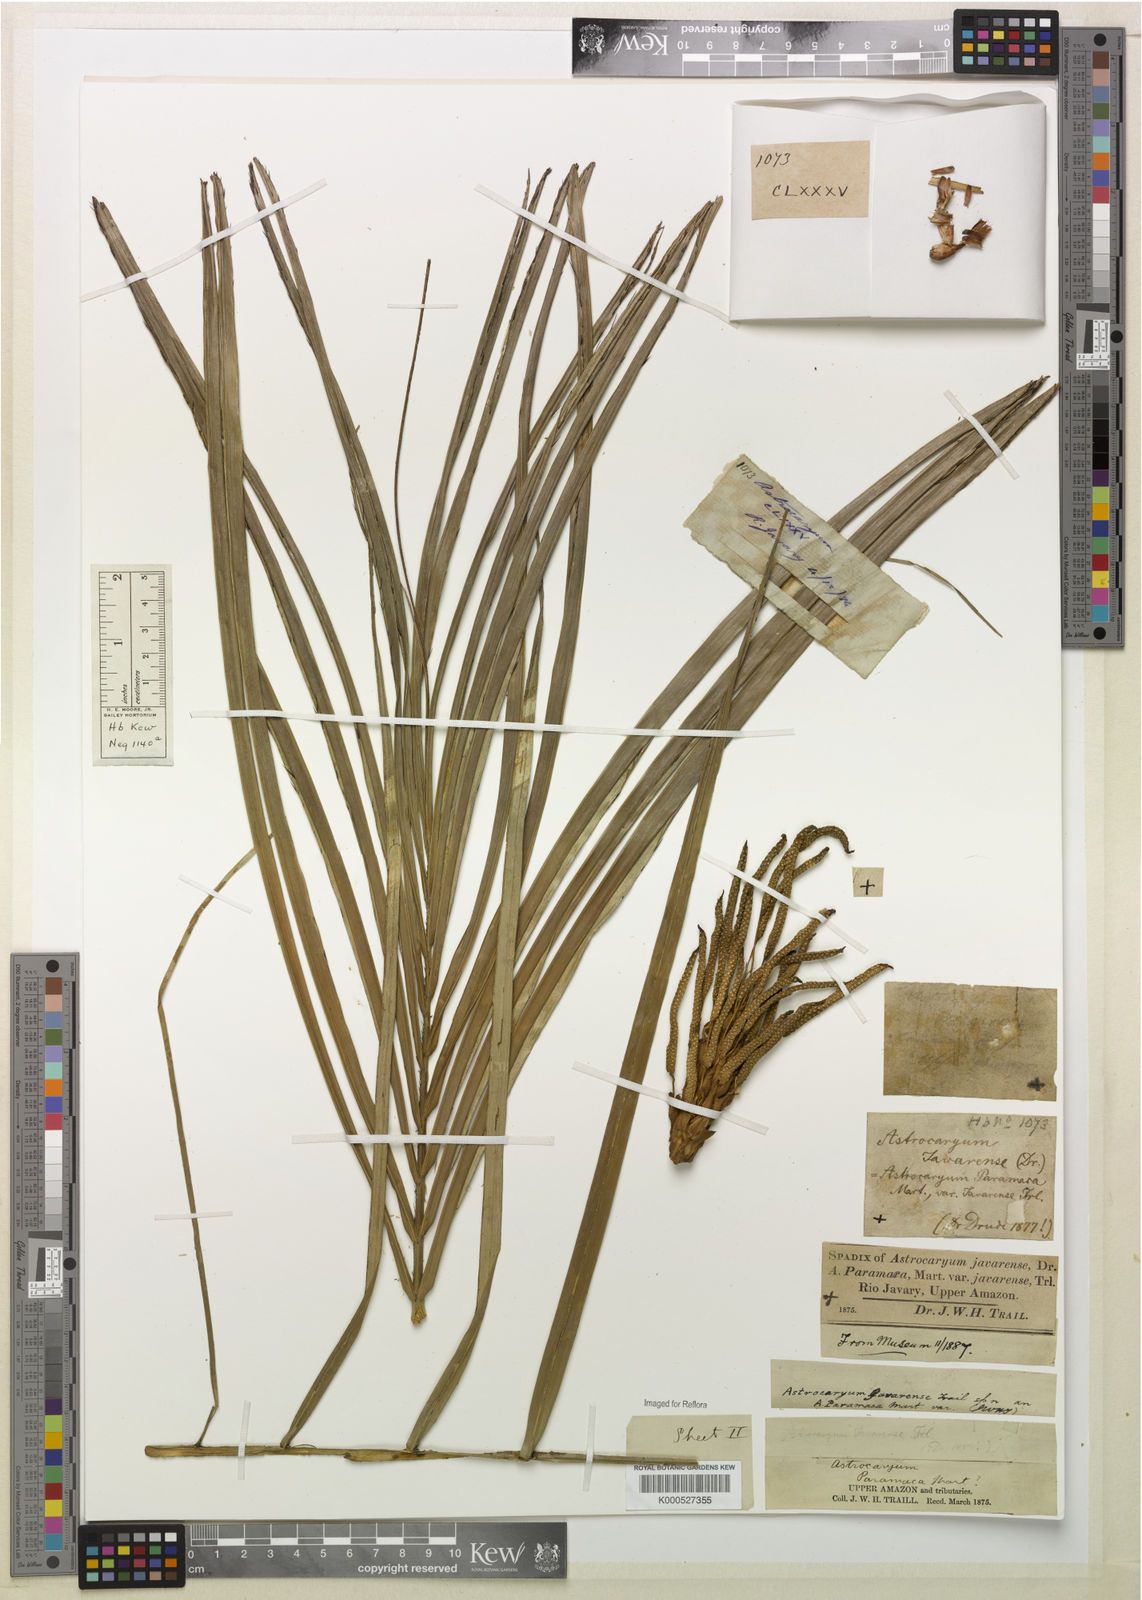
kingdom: Plantae
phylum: Tracheophyta
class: Liliopsida
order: Arecales
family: Arecaceae
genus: Astrocaryum
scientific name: Astrocaryum javarense
